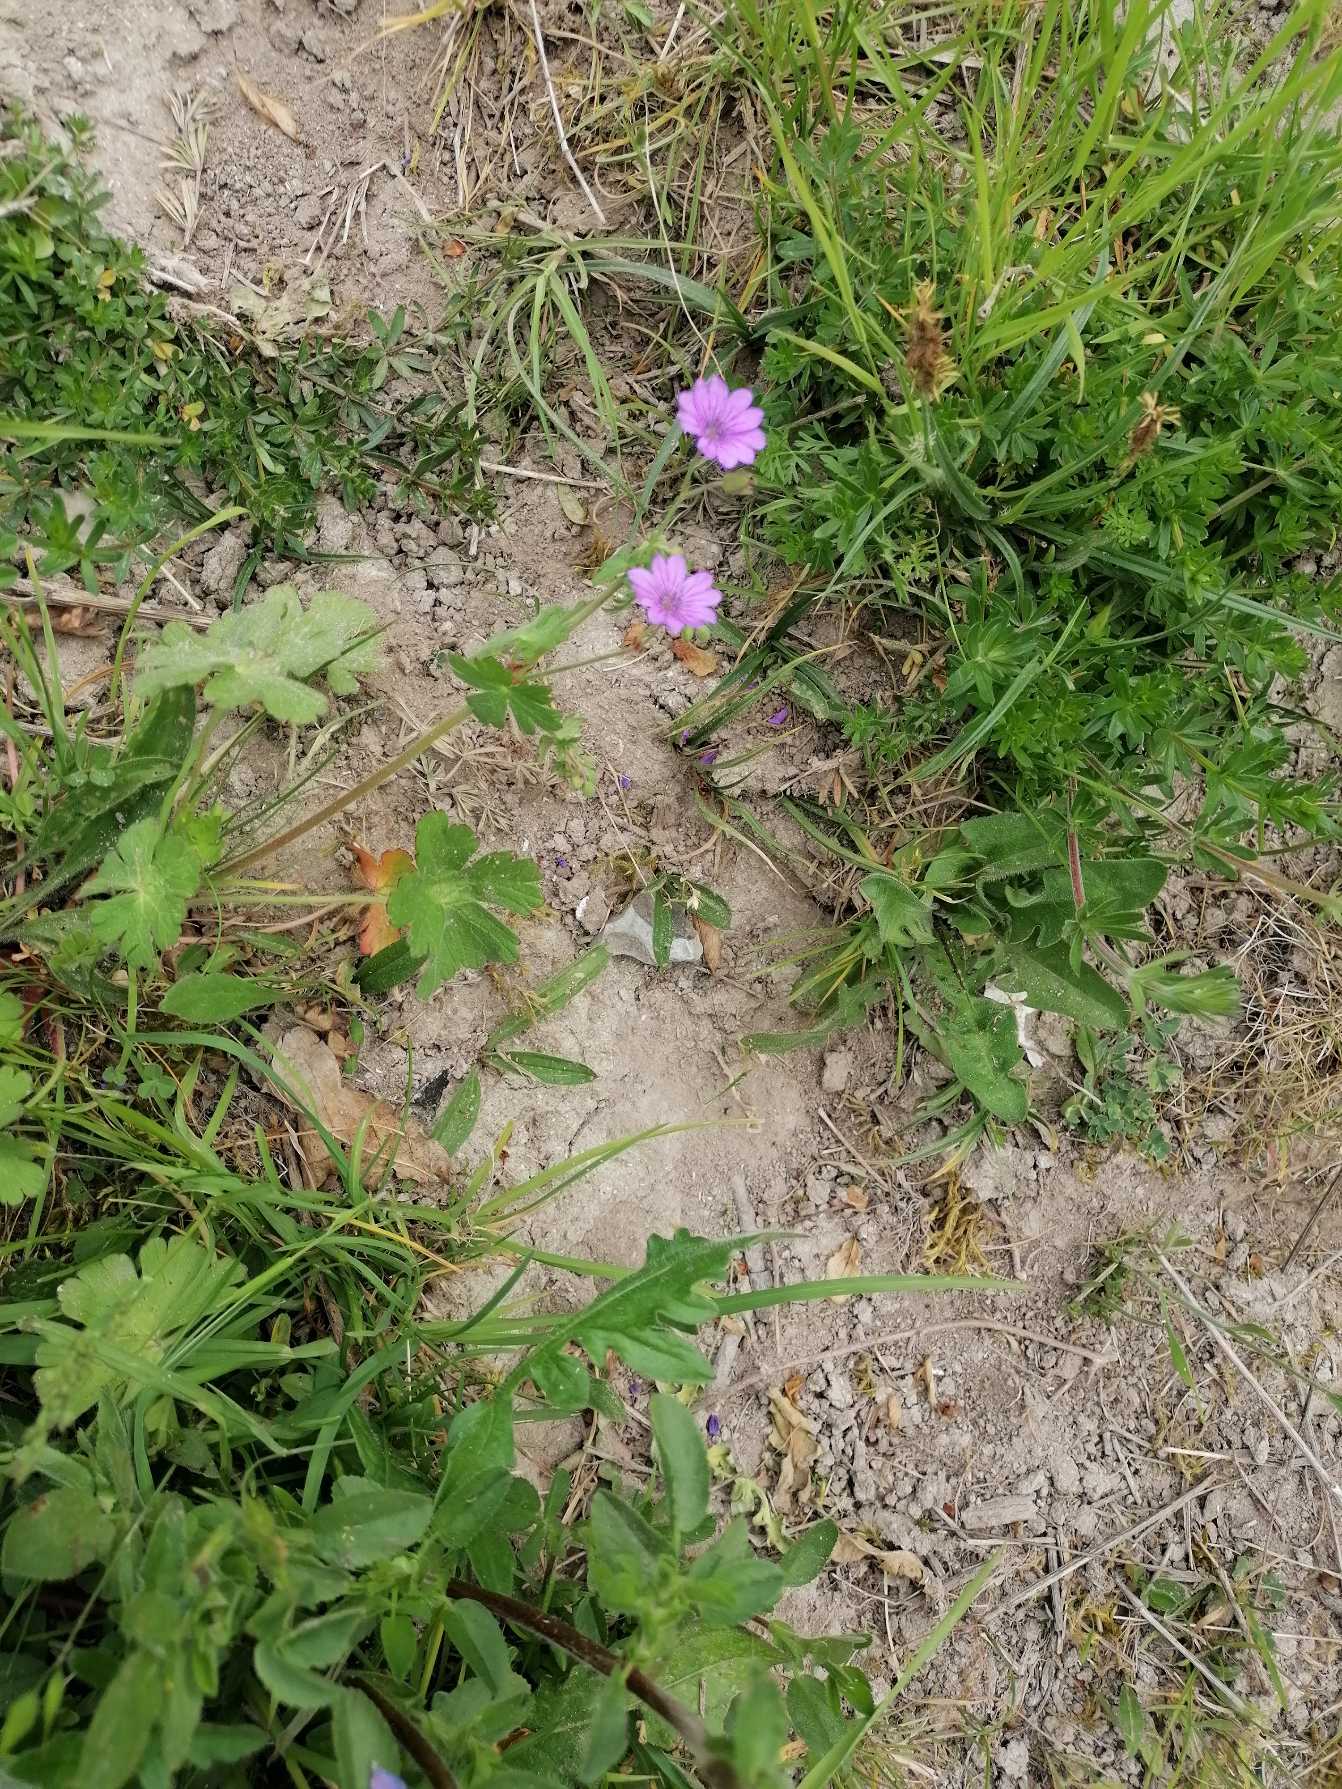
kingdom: Plantae
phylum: Tracheophyta
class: Magnoliopsida
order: Geraniales
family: Geraniaceae
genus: Geranium
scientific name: Geranium pyrenaicum
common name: Pyrenæisk storkenæb
